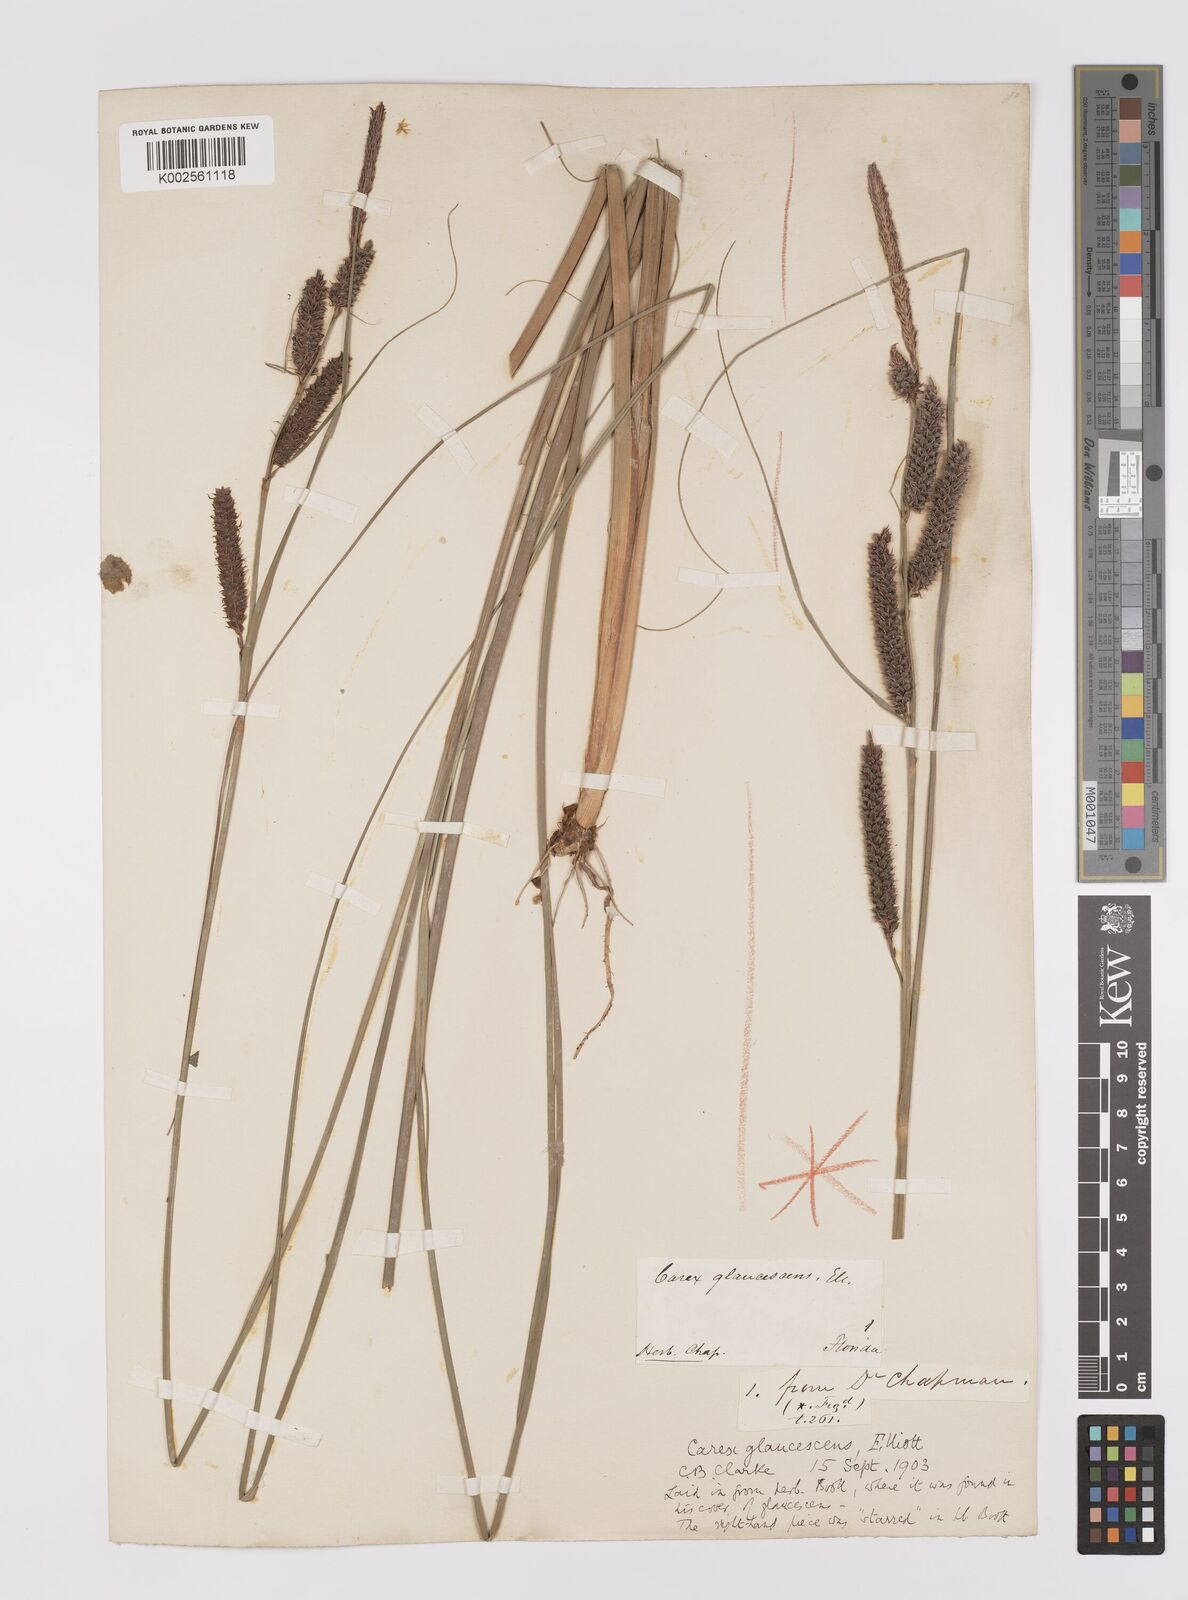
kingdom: Plantae
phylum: Tracheophyta
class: Liliopsida
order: Poales
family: Cyperaceae
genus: Carex
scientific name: Carex glaucescens
